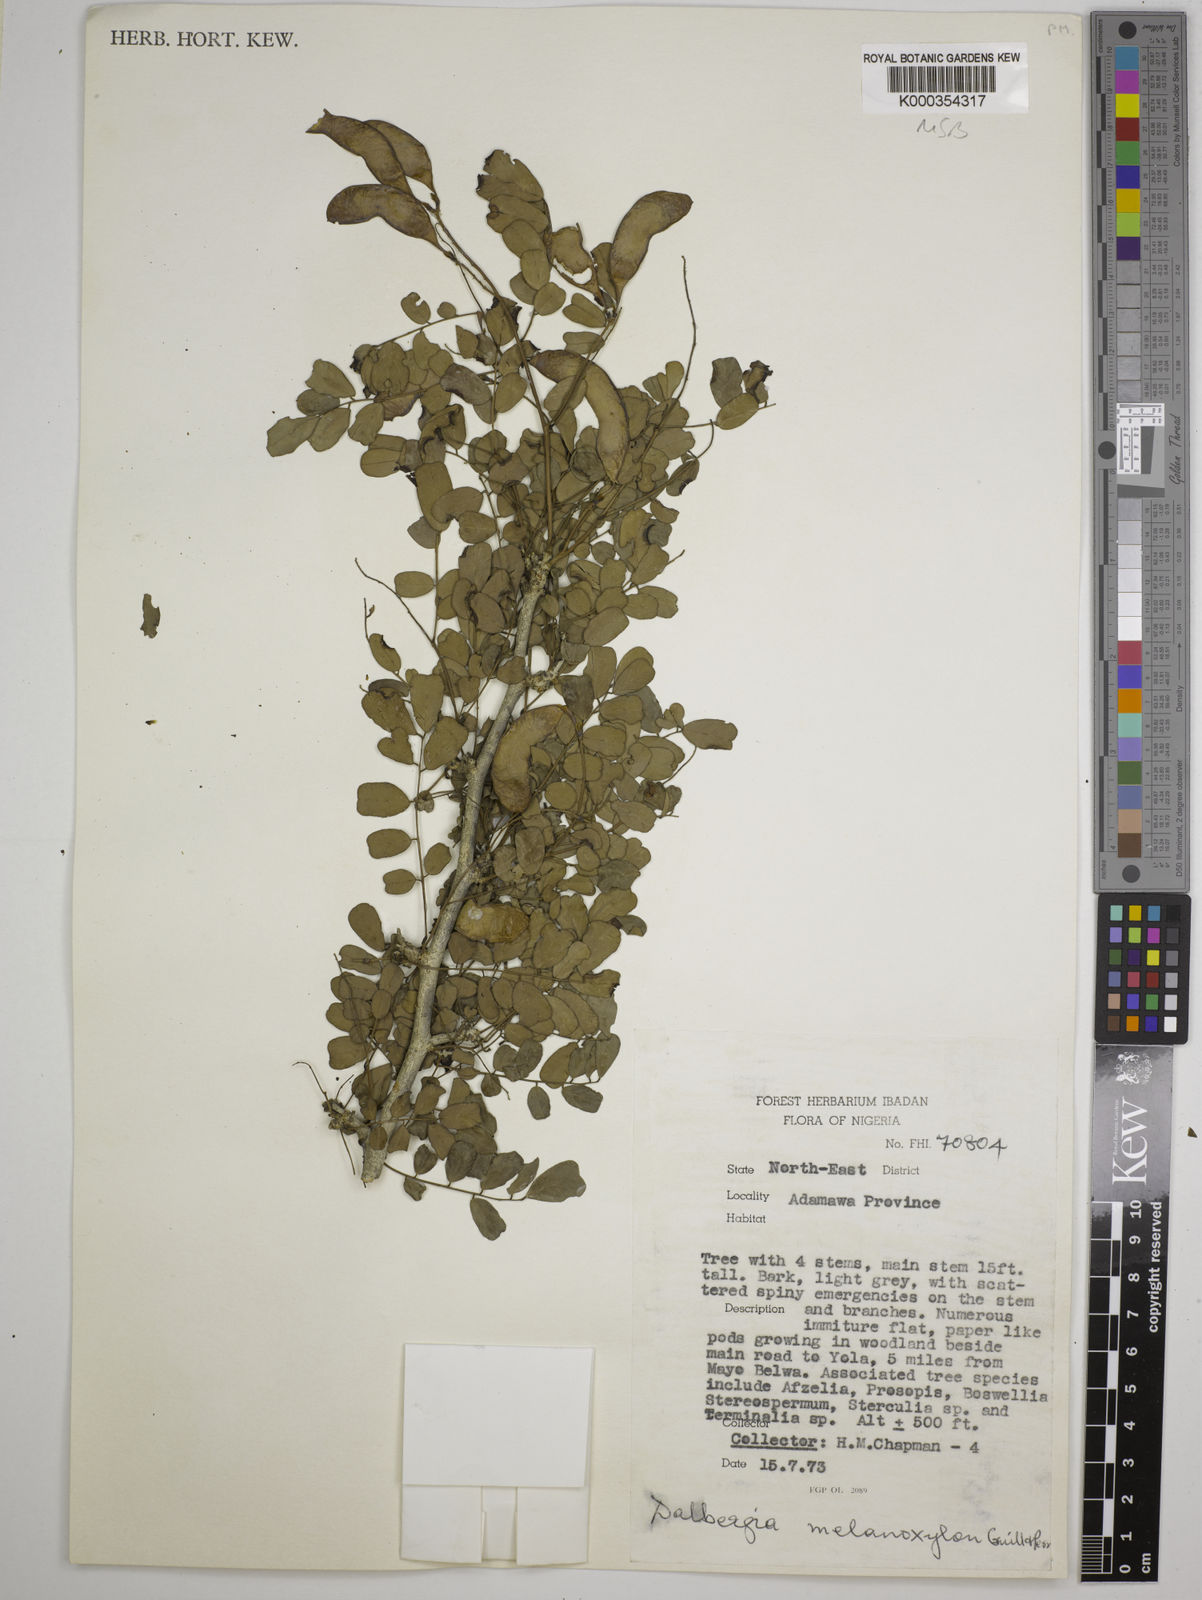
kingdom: Plantae
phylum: Tracheophyta
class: Magnoliopsida
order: Fabales
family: Fabaceae
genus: Dalbergia
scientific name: Dalbergia melanoxylon
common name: African blackwood
